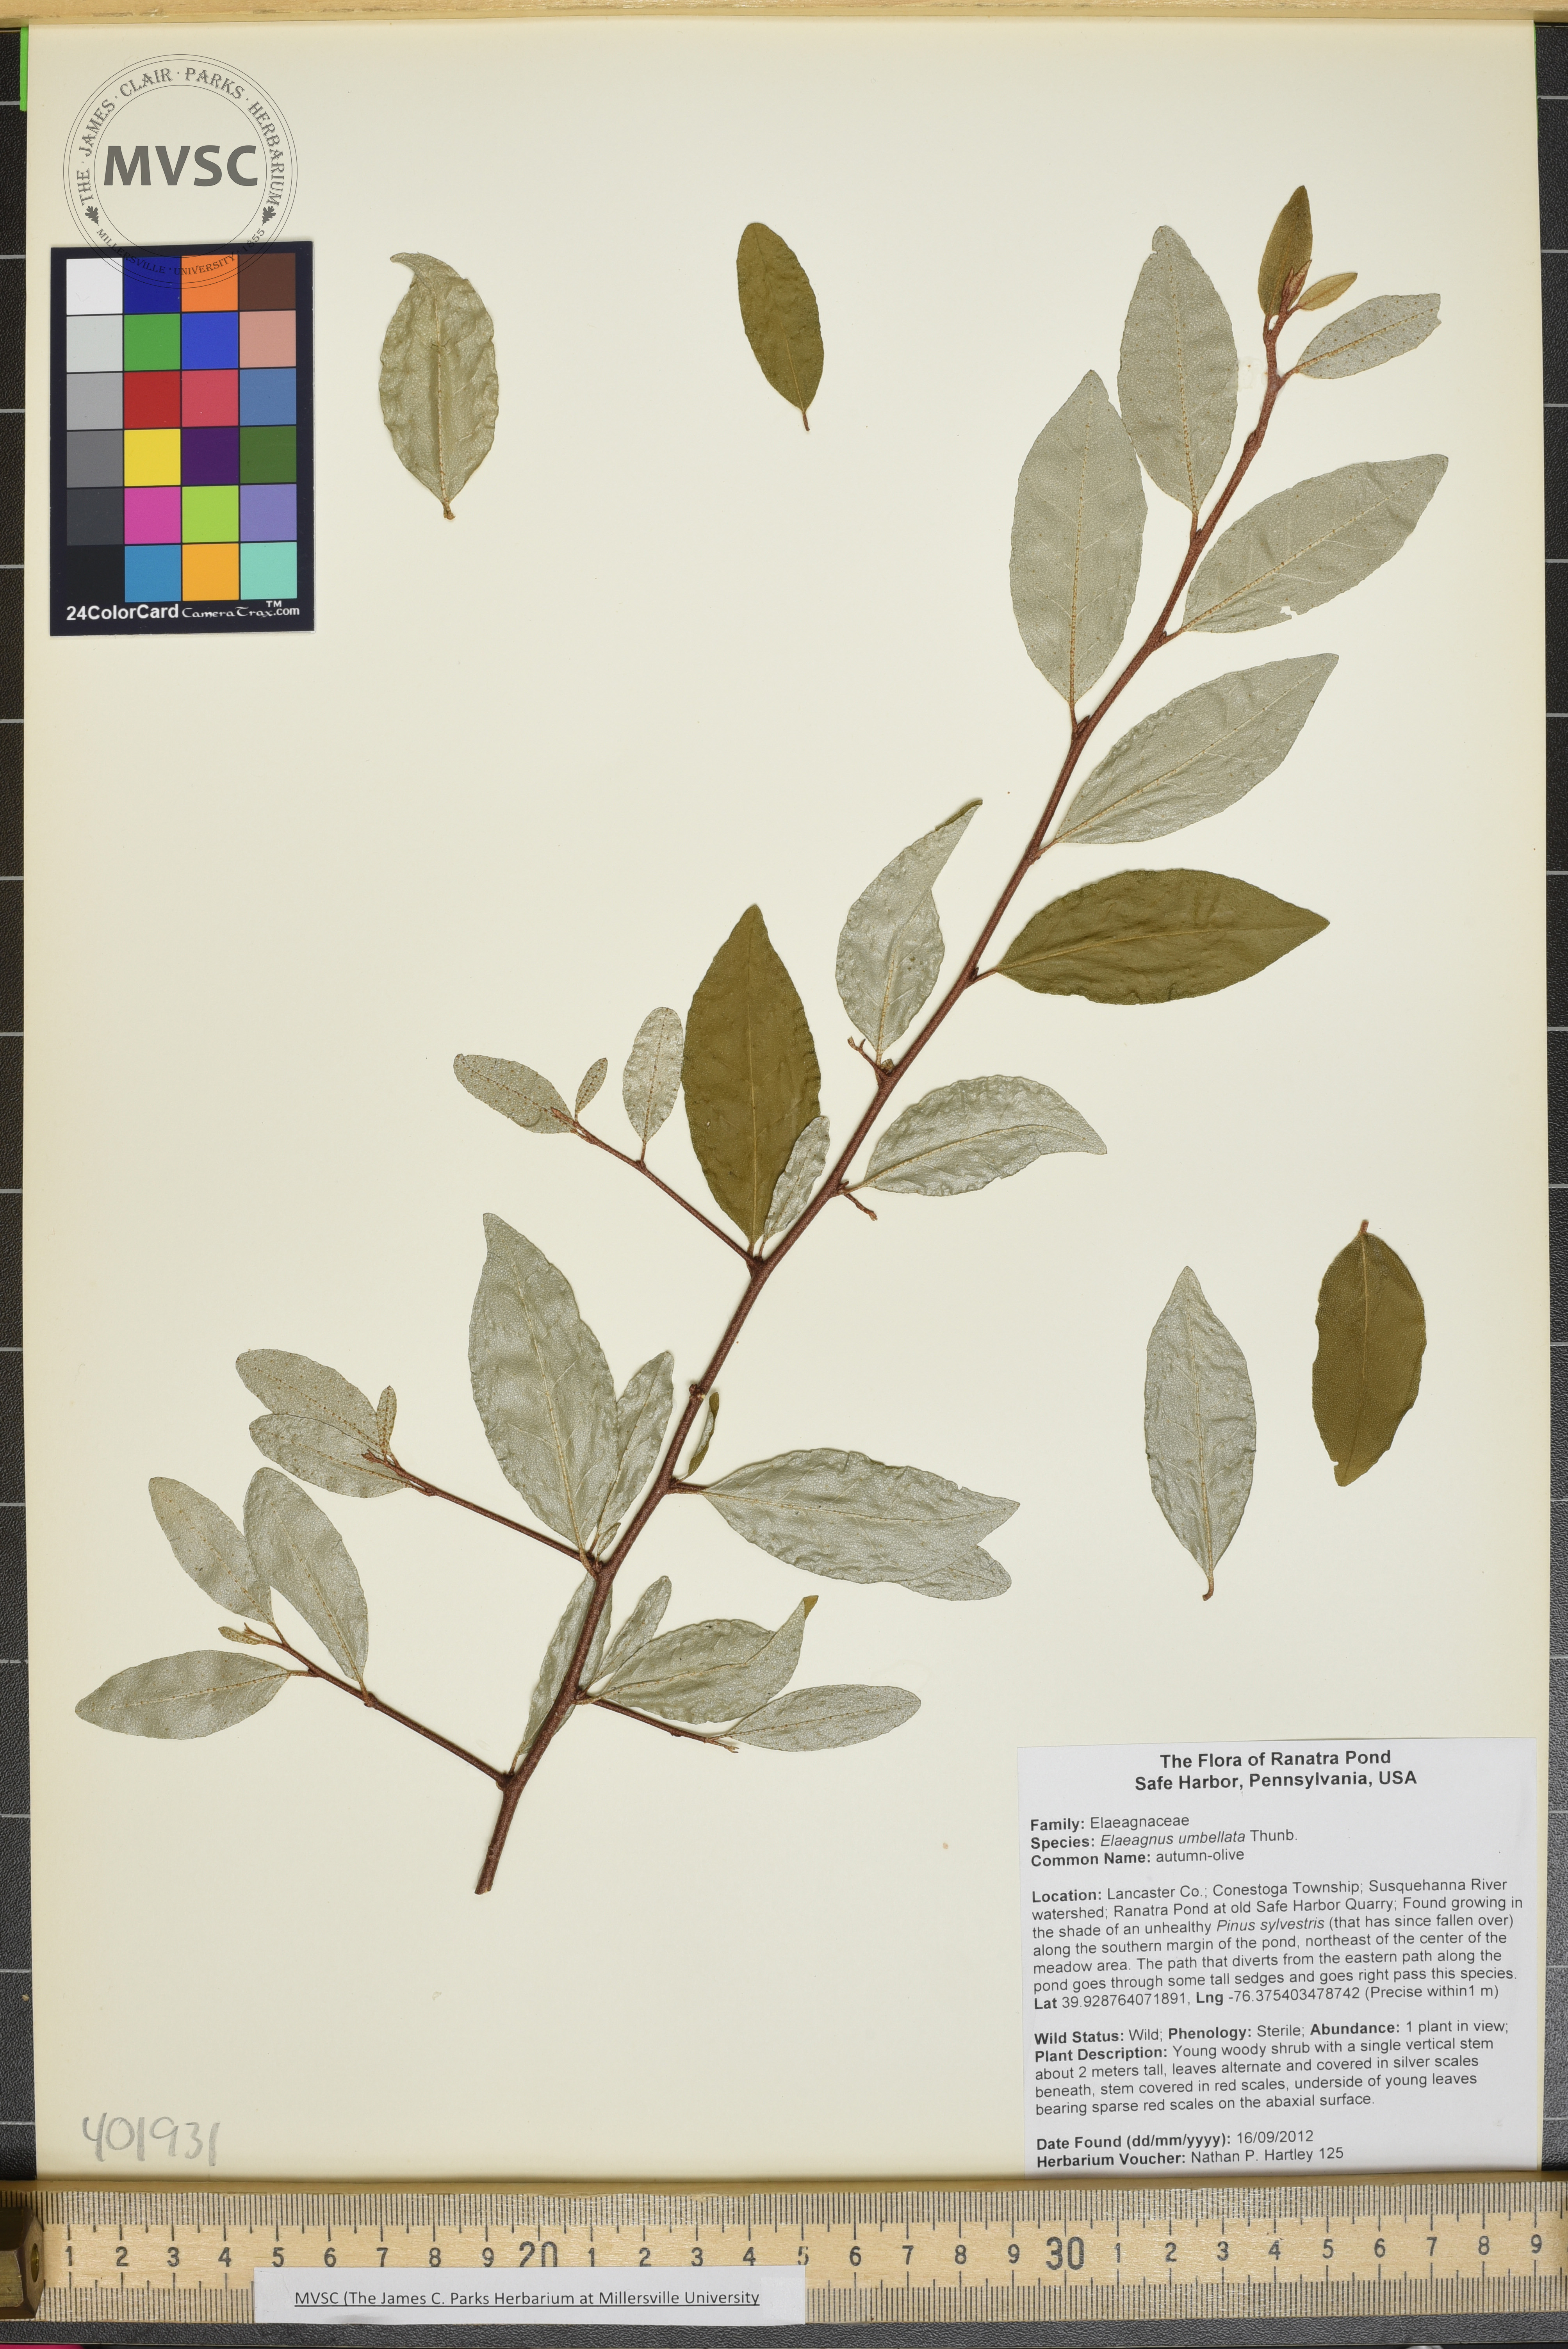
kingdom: Plantae
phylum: Tracheophyta
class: Magnoliopsida
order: Rosales
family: Elaeagnaceae
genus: Elaeagnus
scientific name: Elaeagnus umbellata
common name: Autumn-olive
